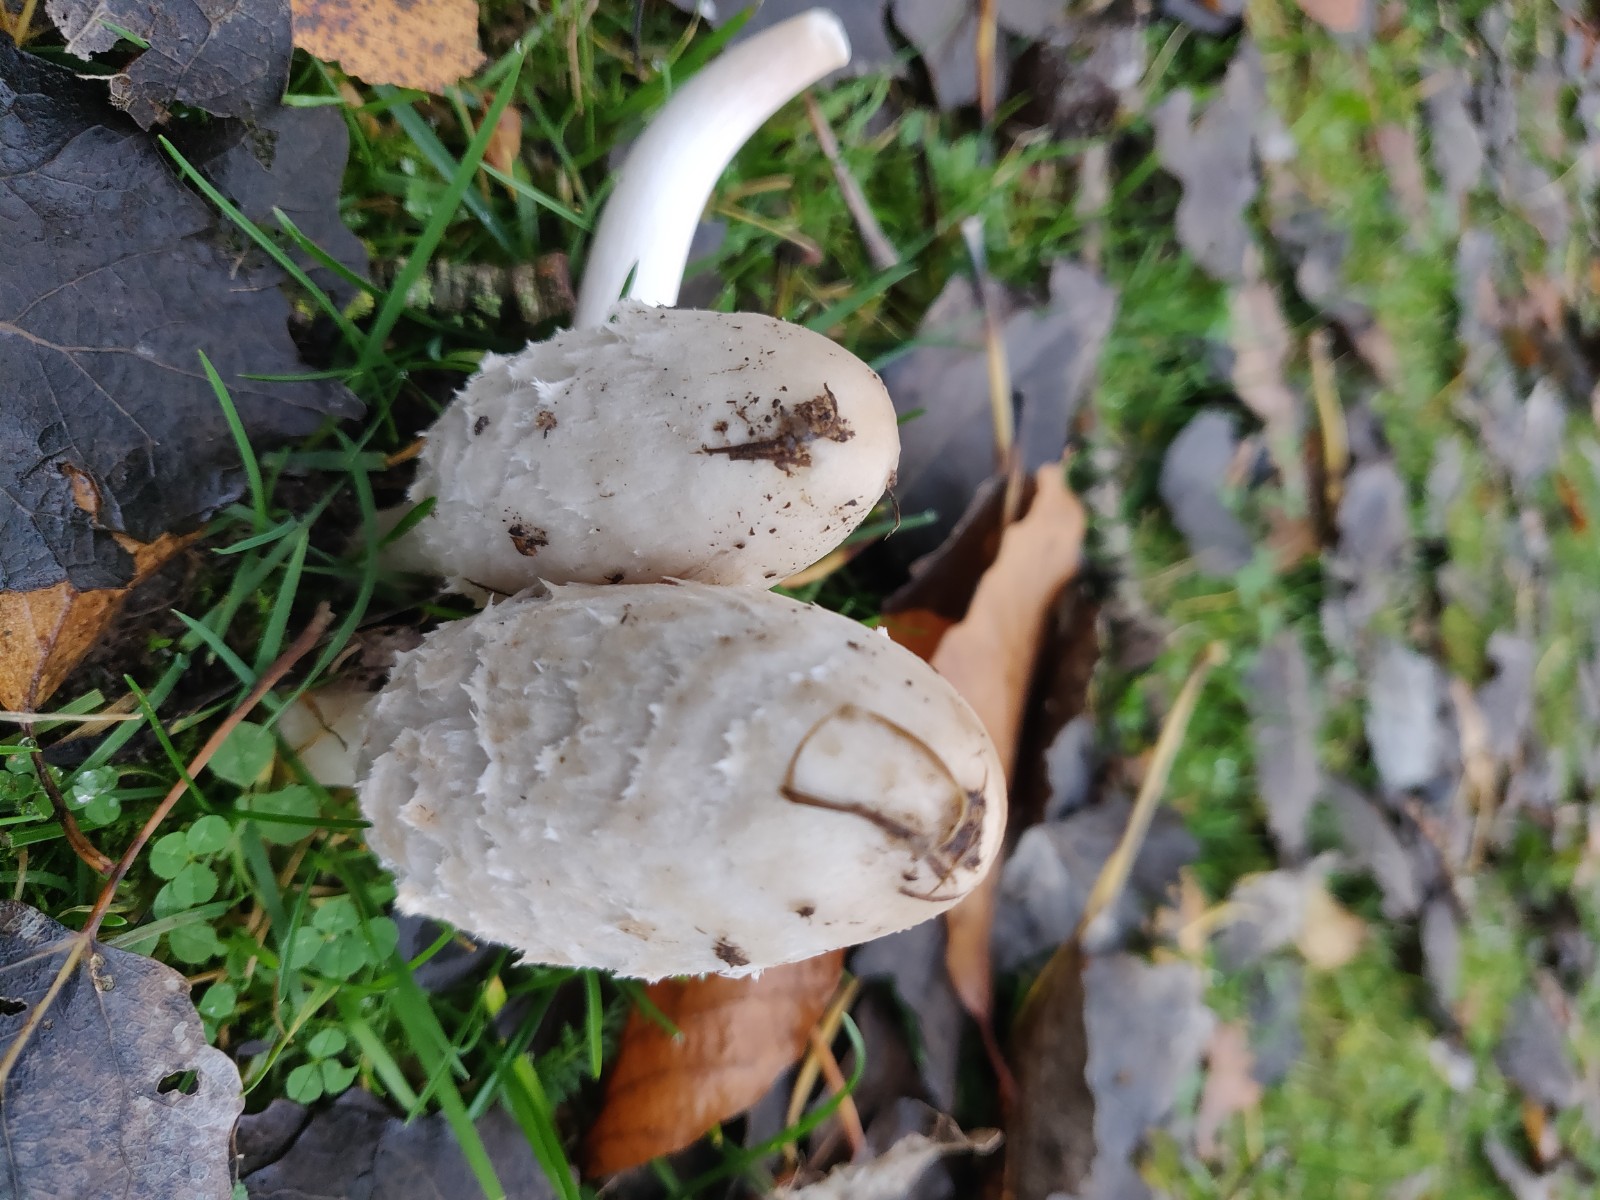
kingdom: Fungi
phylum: Basidiomycota
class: Agaricomycetes
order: Agaricales
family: Agaricaceae
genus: Coprinus
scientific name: Coprinus comatus
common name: stor parykhat
